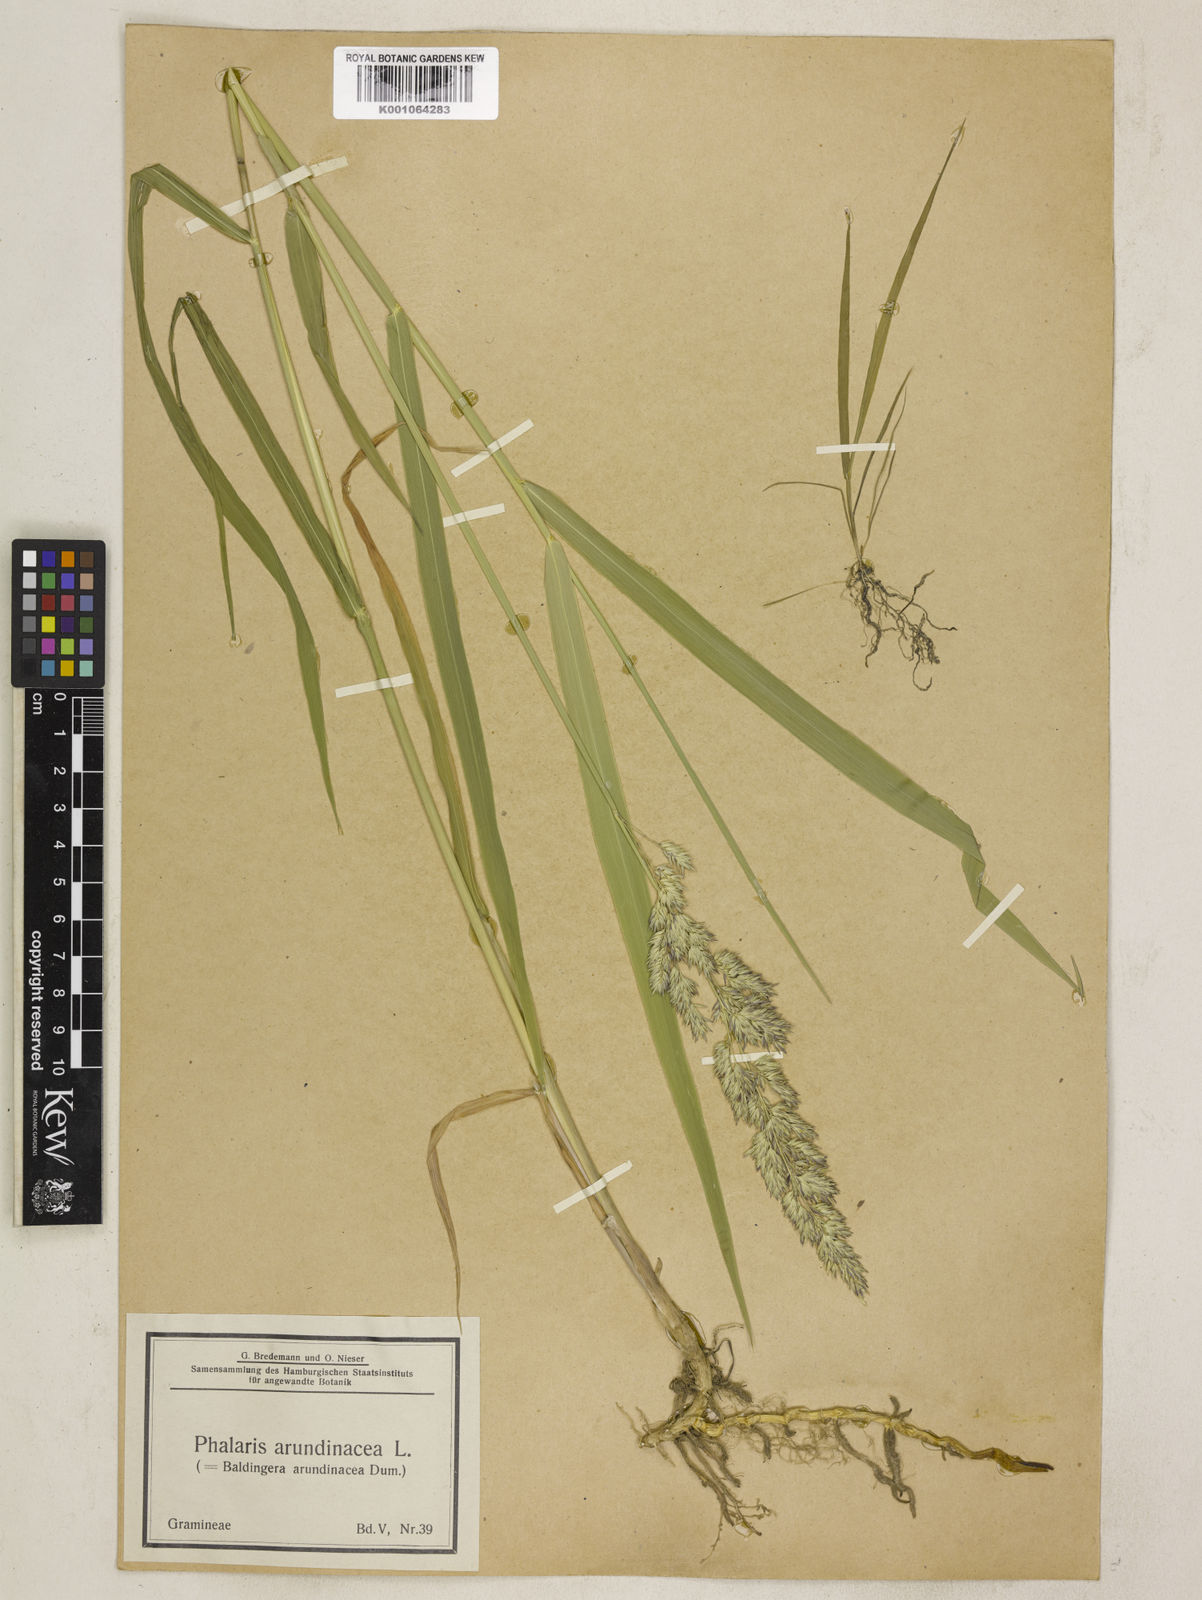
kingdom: Plantae
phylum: Tracheophyta
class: Liliopsida
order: Poales
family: Poaceae
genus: Phalaris
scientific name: Phalaris arundinacea
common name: Reed canary-grass
